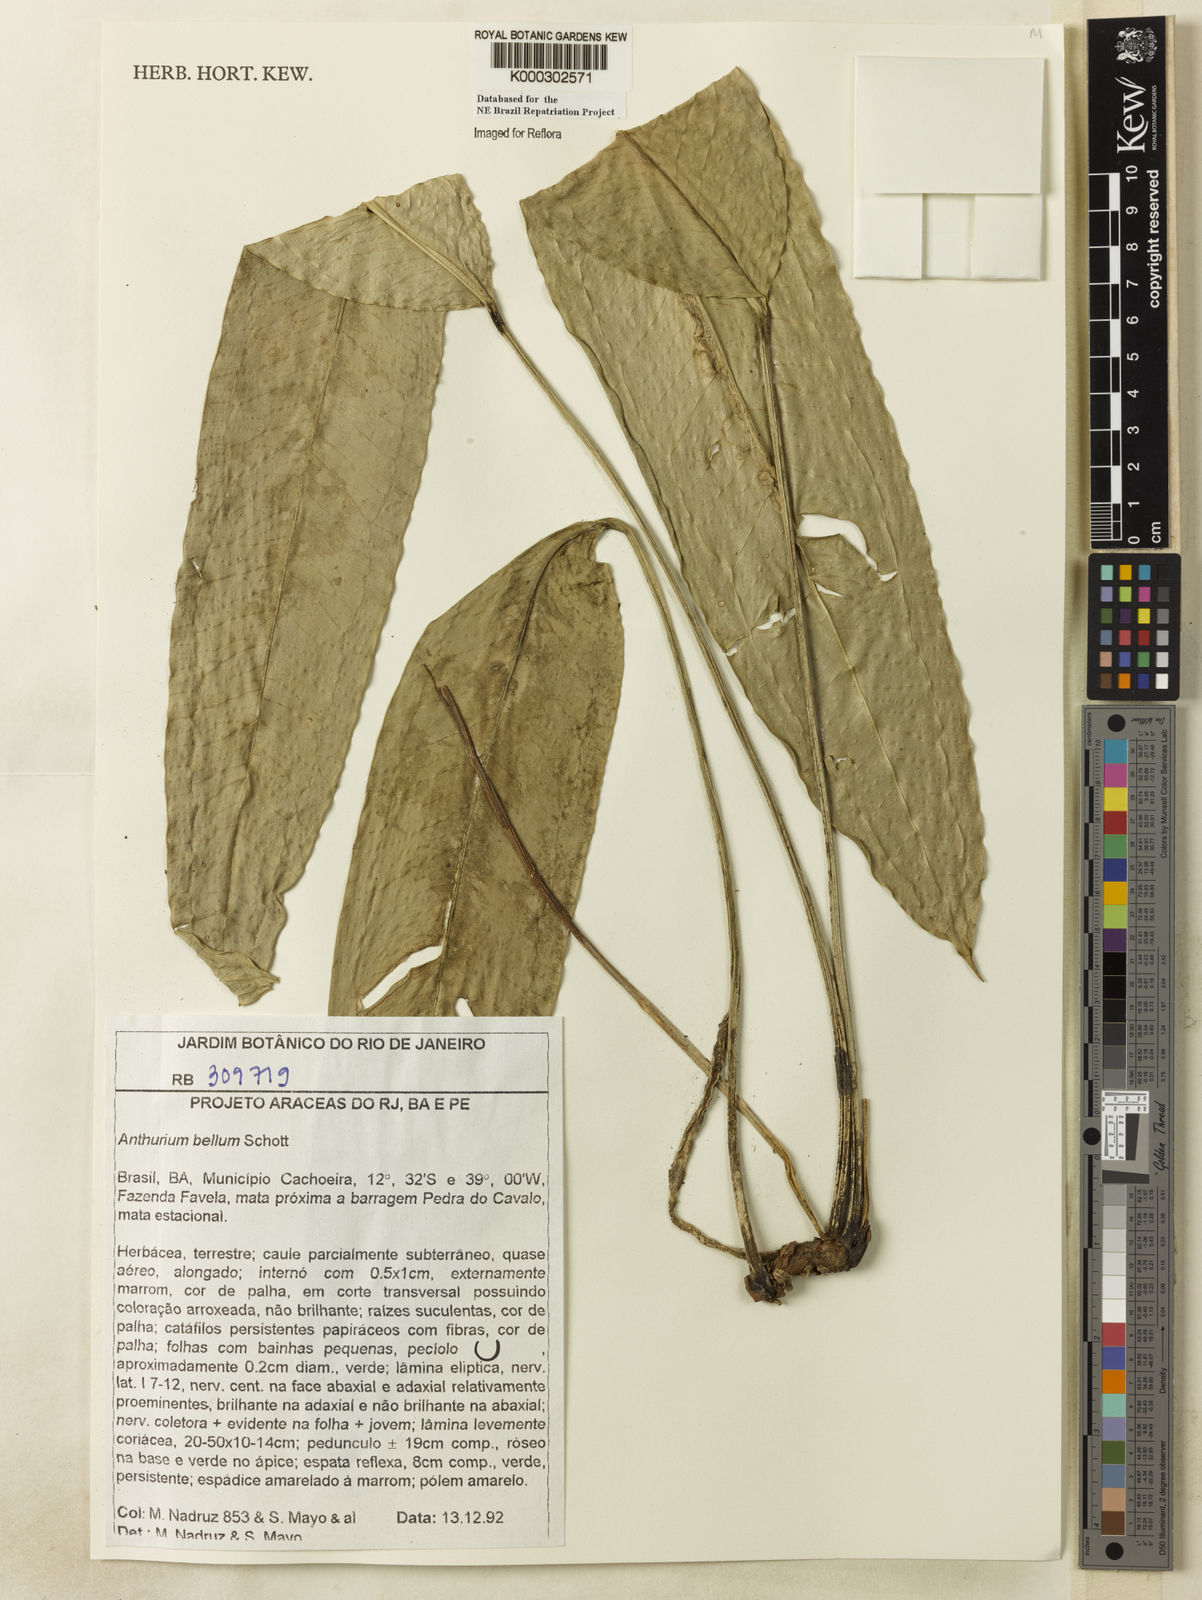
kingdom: Plantae
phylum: Tracheophyta
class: Liliopsida
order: Alismatales
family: Araceae
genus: Anthurium
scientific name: Anthurium bellum
